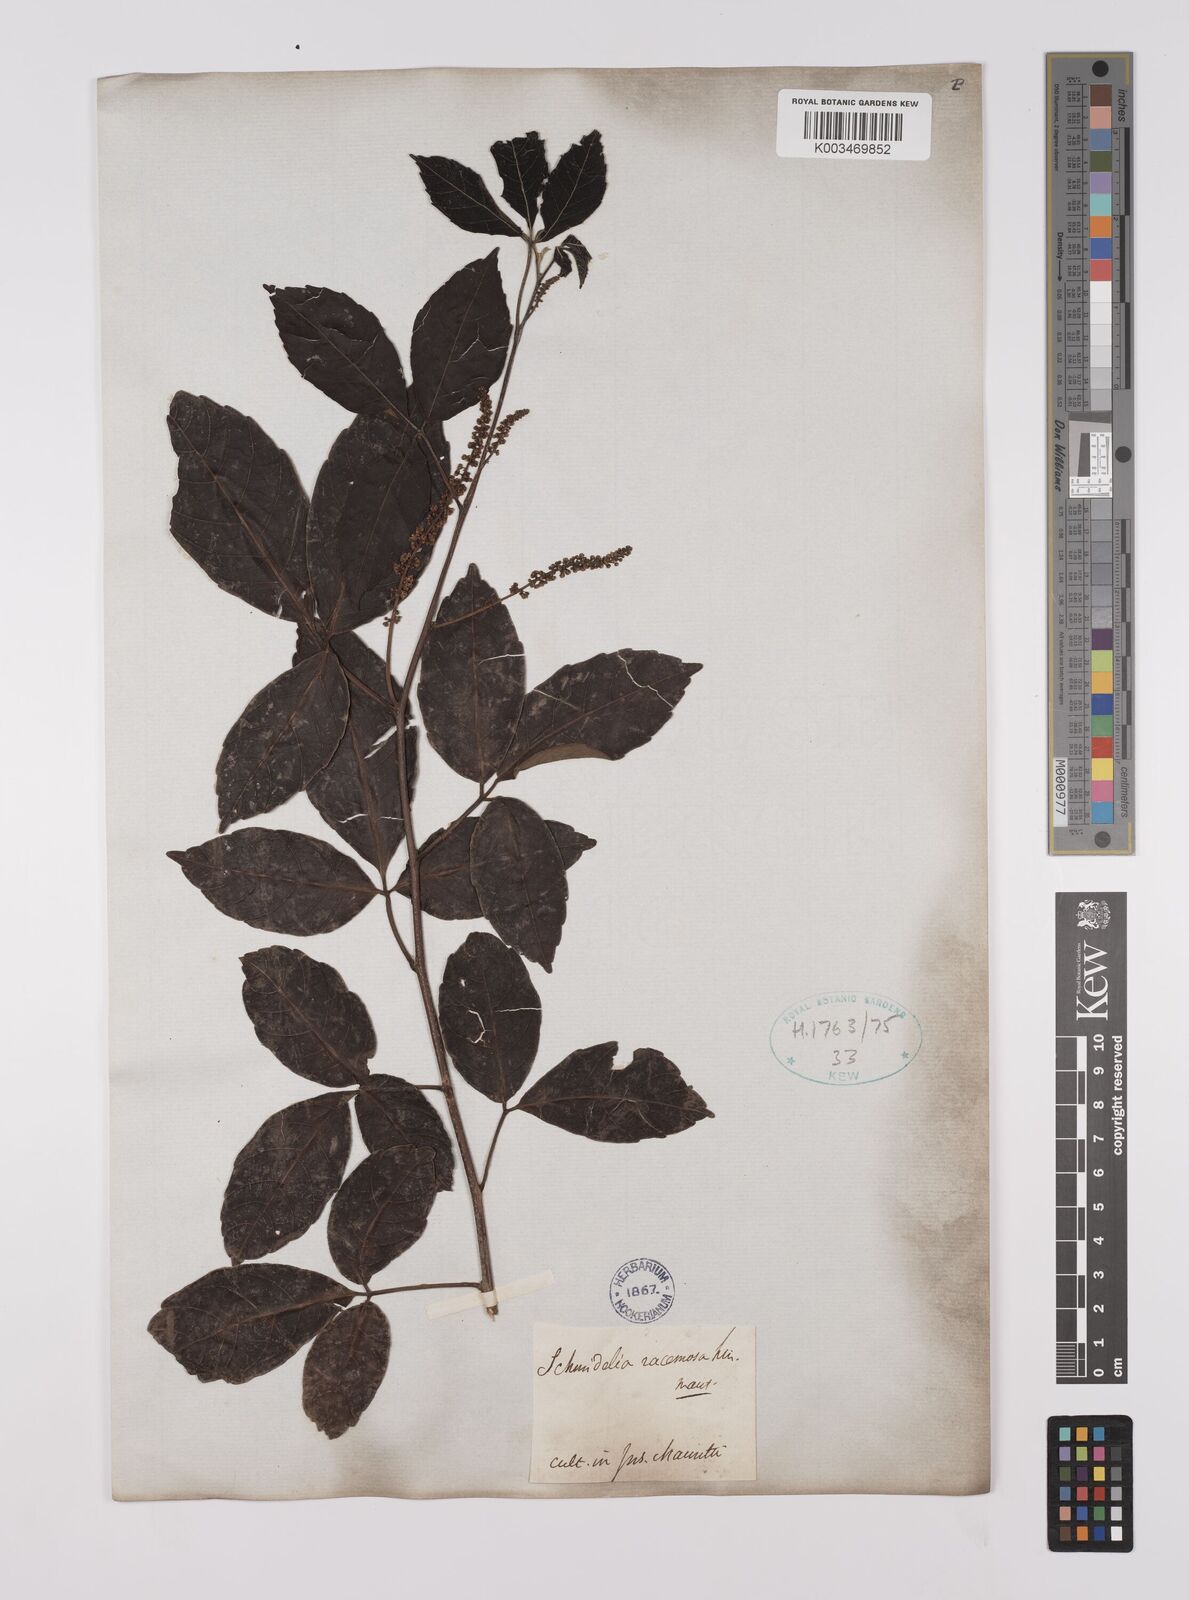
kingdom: Plantae
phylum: Tracheophyta
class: Magnoliopsida
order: Sapindales
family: Sapindaceae
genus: Allophylus
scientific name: Allophylus
